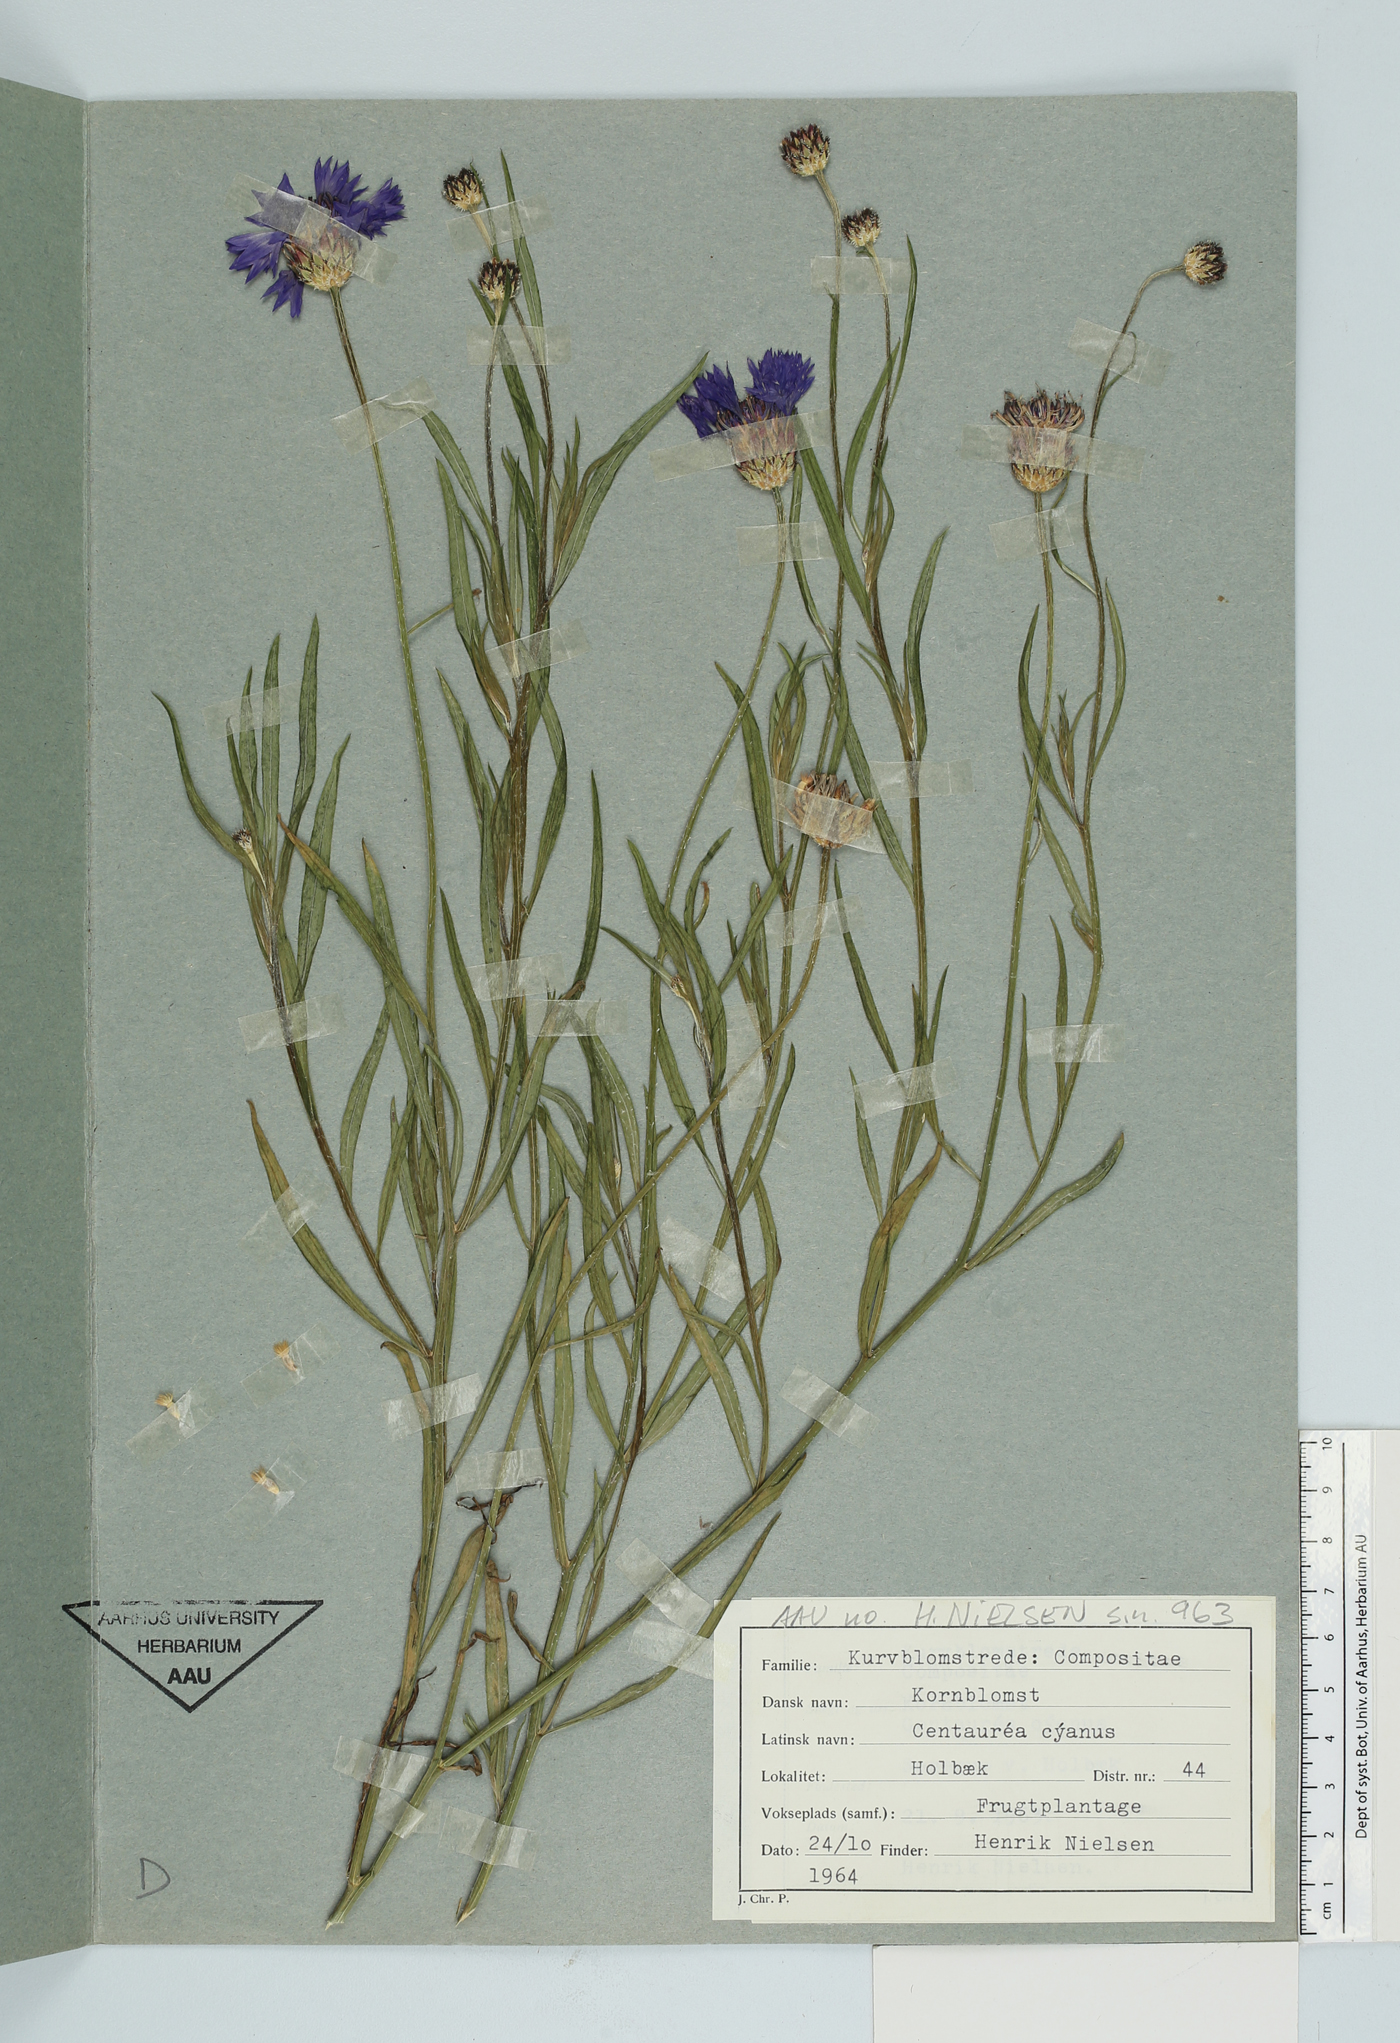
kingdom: Plantae
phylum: Tracheophyta
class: Magnoliopsida
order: Asterales
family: Asteraceae
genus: Centaurea
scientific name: Centaurea cyanus
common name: Cornflower
